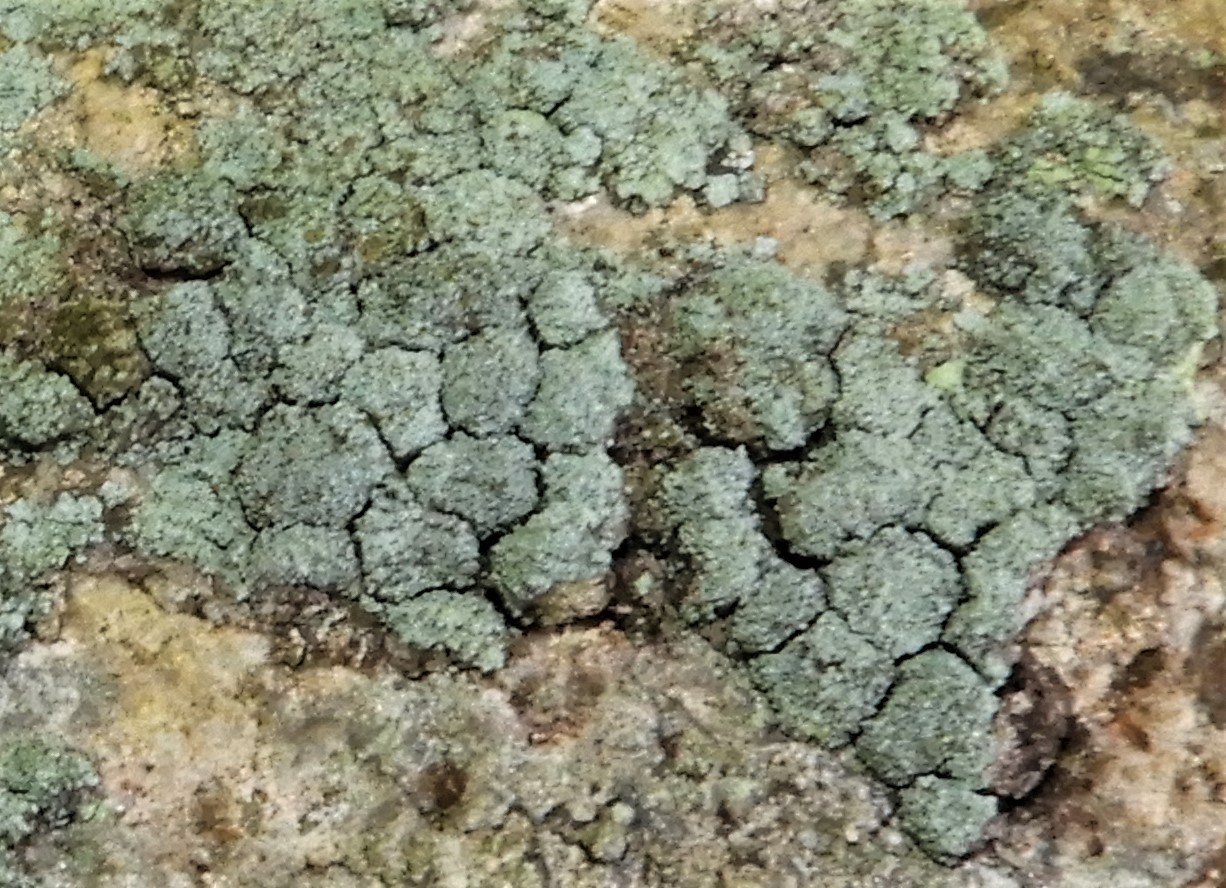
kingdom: Fungi
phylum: Ascomycota
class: Lecanoromycetes
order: Lecanorales
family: Stereocaulaceae
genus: Lepraria
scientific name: Lepraria
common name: støvlav
